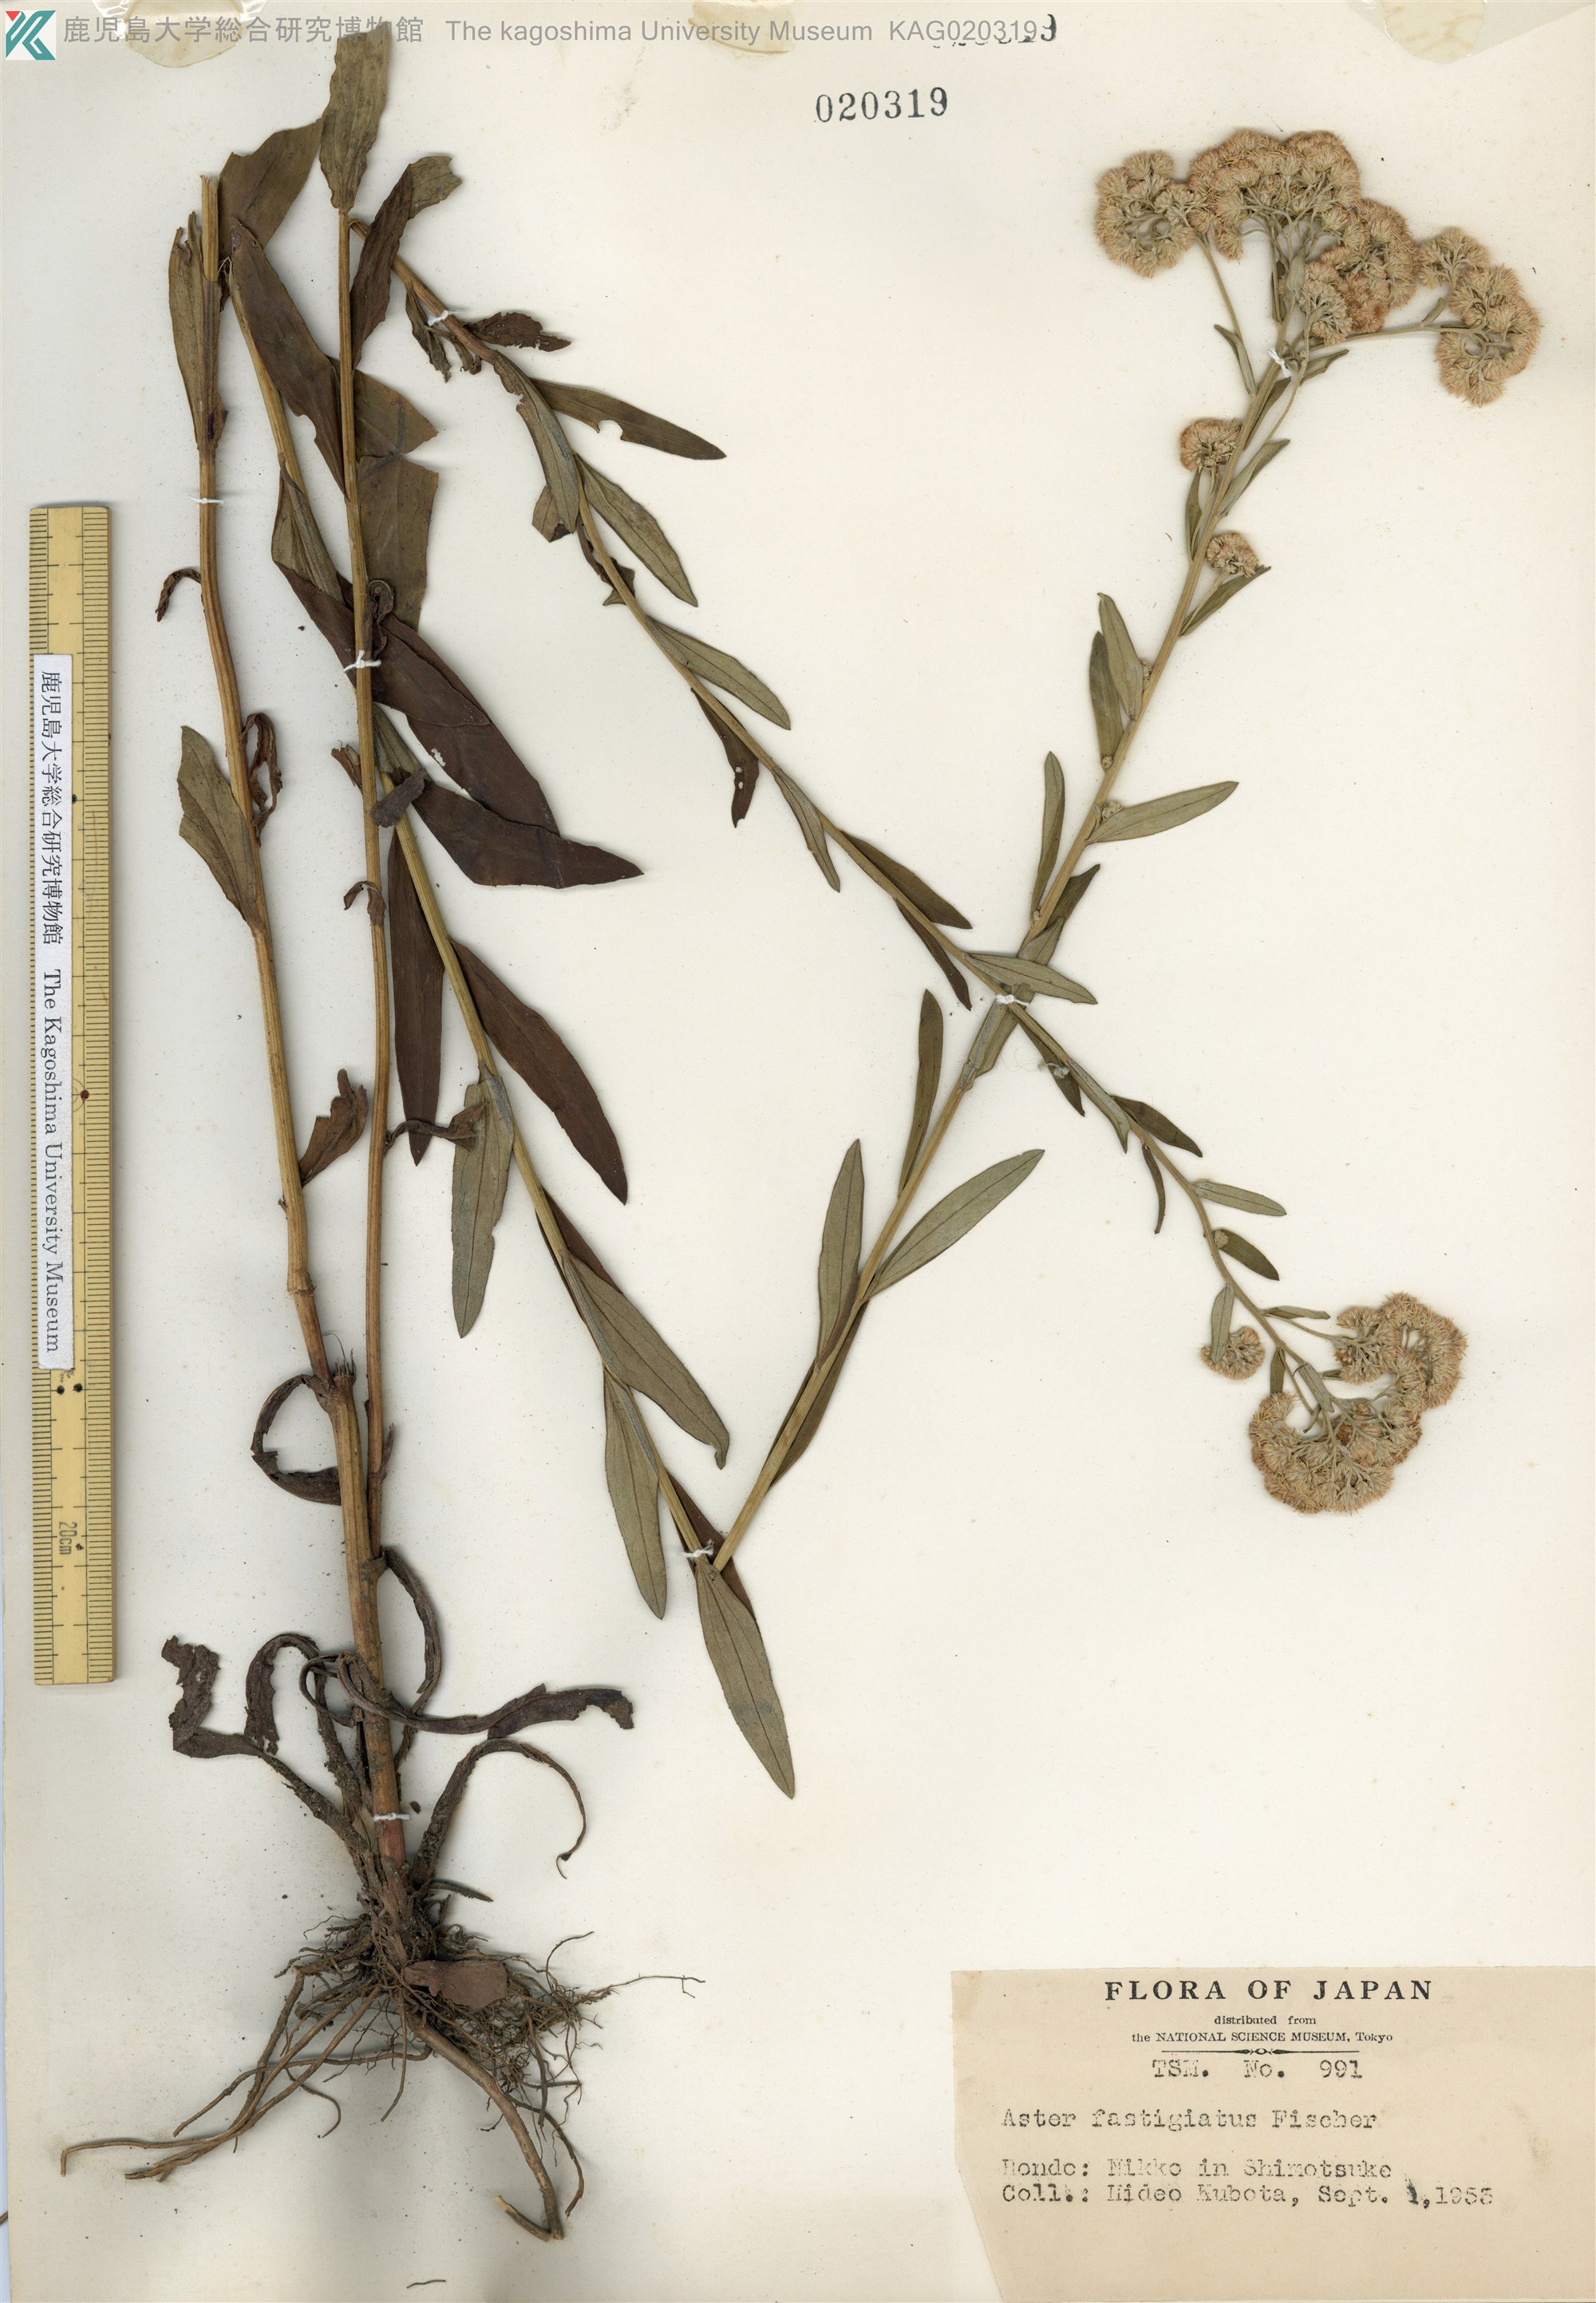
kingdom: Plantae
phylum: Tracheophyta
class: Magnoliopsida
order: Asterales
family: Asteraceae
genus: Turczaninovia
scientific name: Turczaninovia fastigiata
